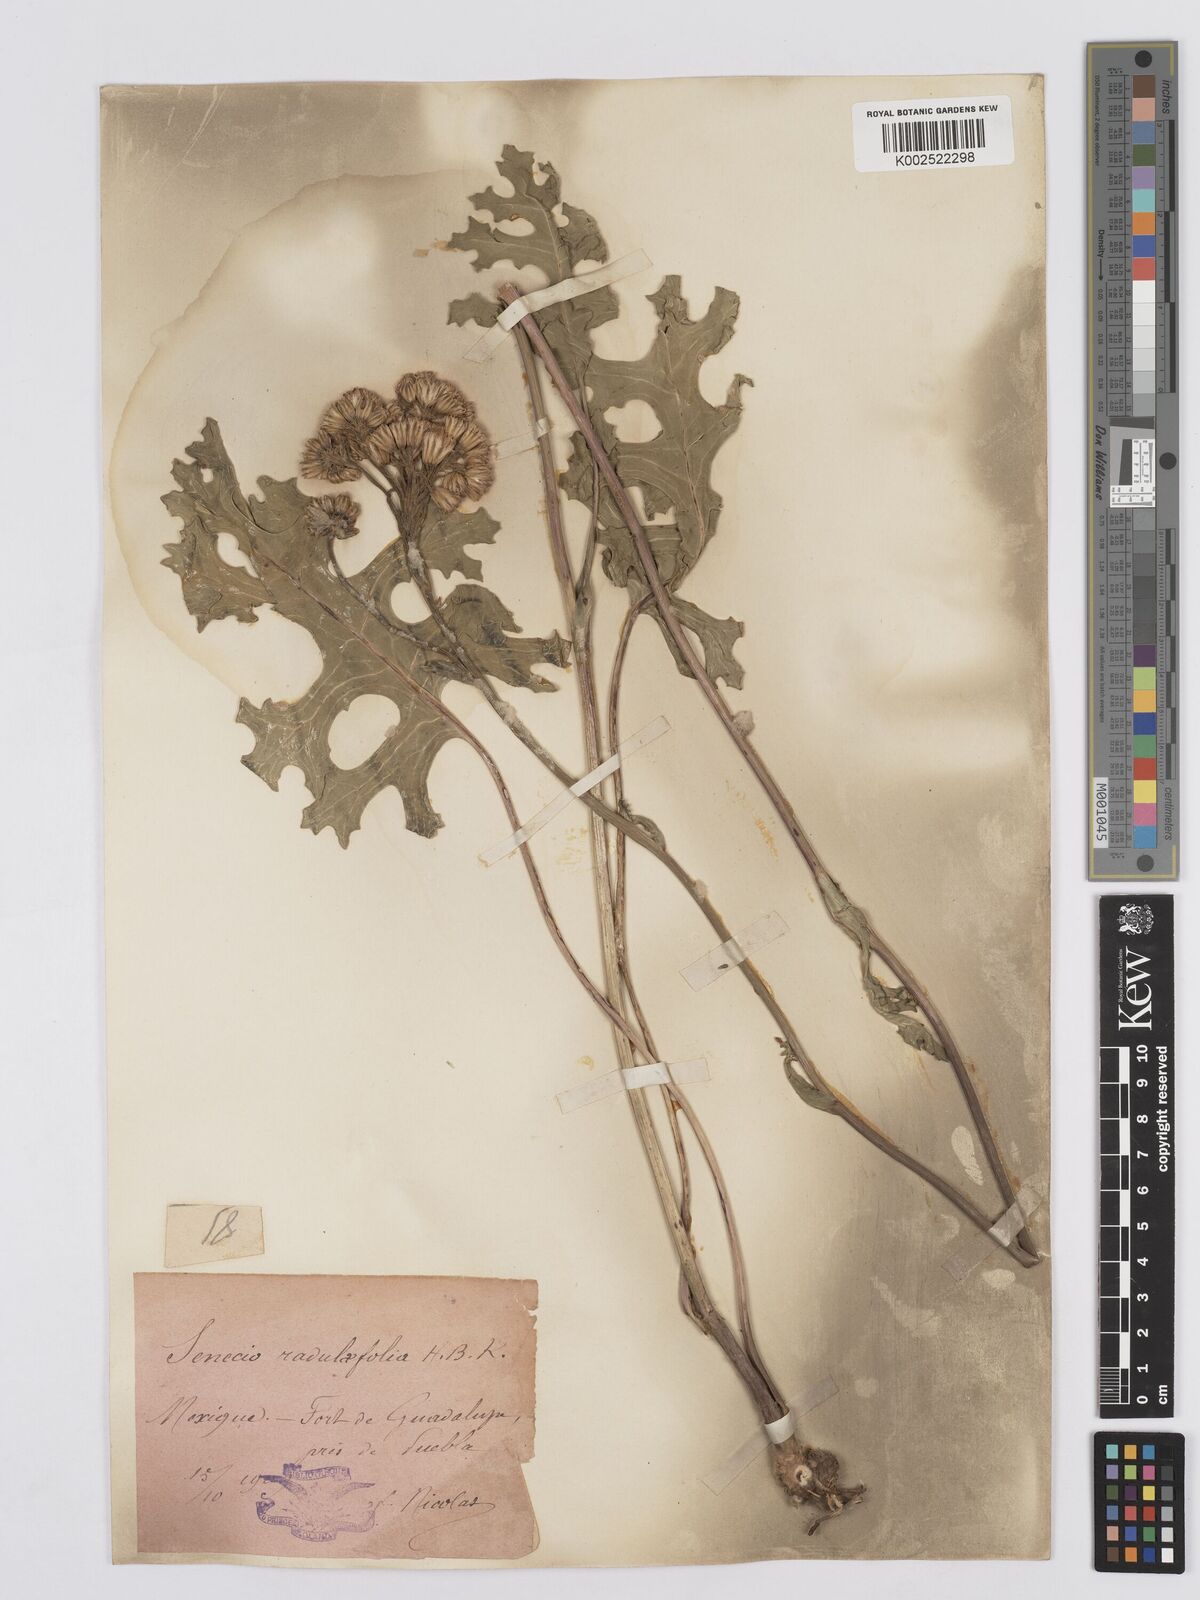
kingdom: Plantae
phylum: Tracheophyta
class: Magnoliopsida
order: Asterales
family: Asteraceae
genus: Psacalium
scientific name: Psacalium radulifolium
